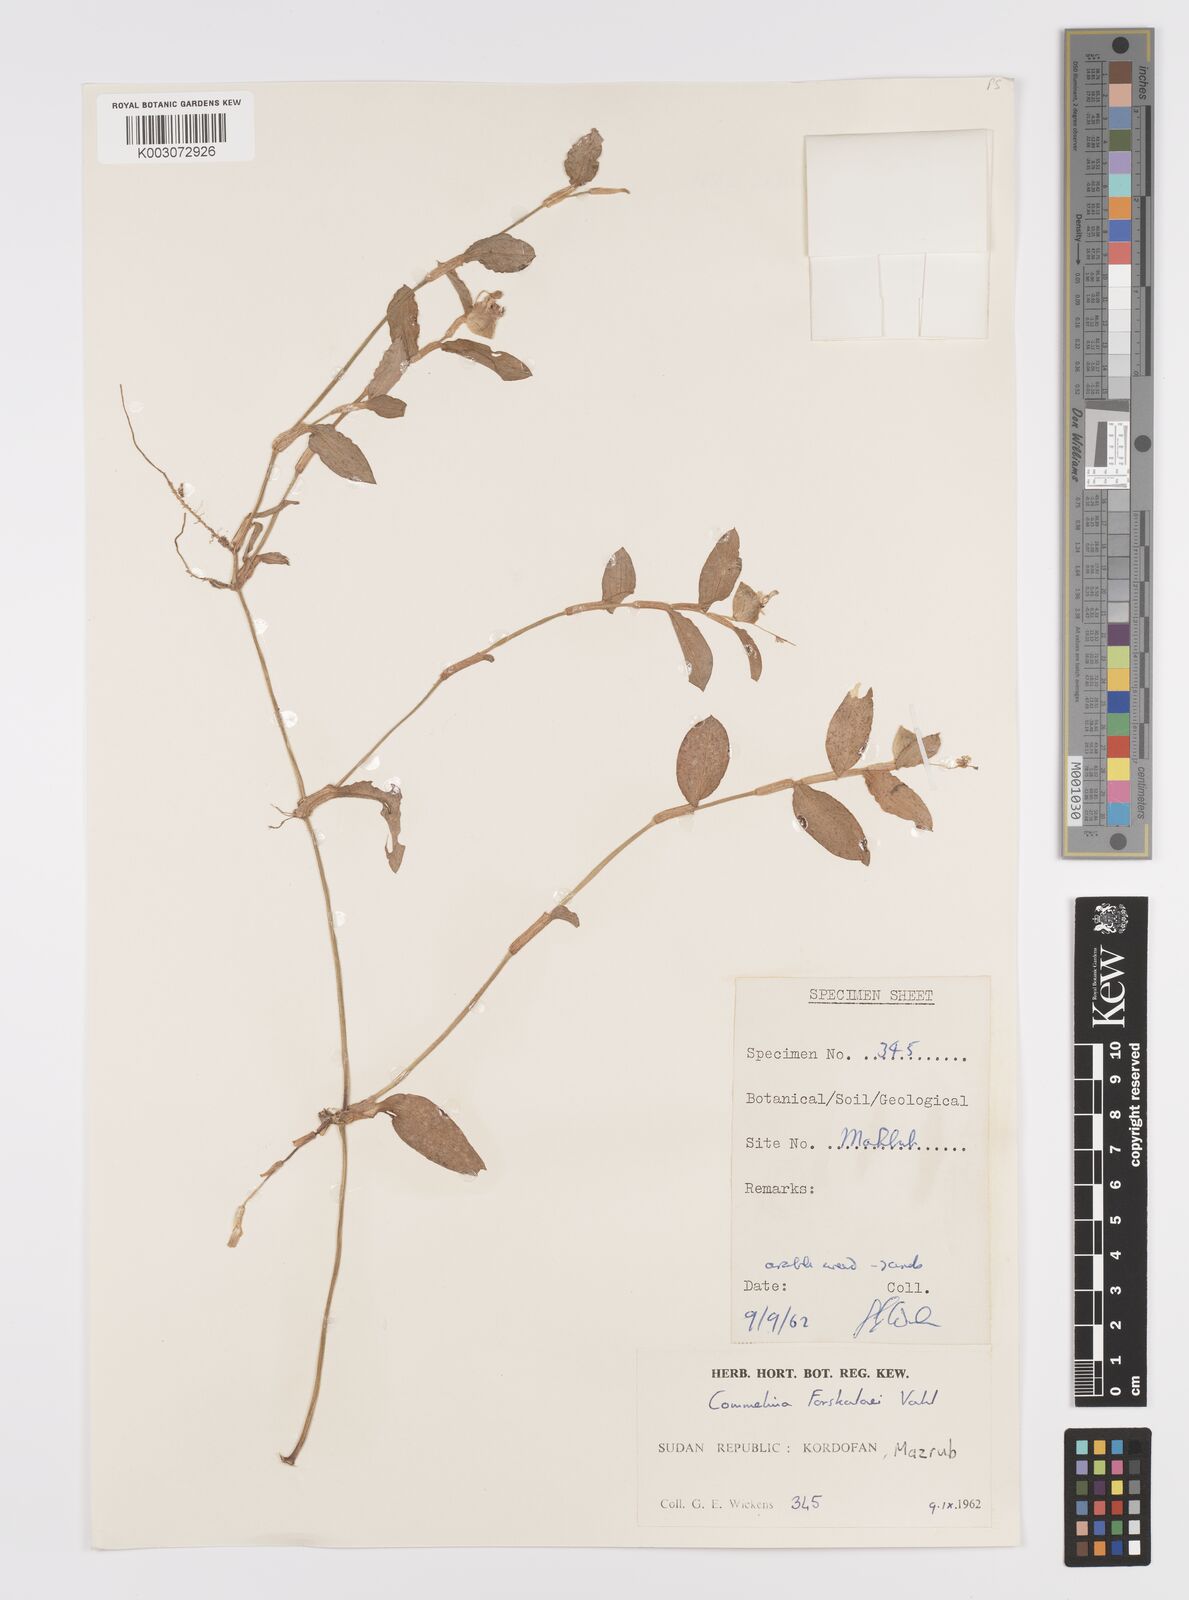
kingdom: Plantae
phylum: Tracheophyta
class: Liliopsida
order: Commelinales
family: Commelinaceae
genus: Commelina
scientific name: Commelina forskaolii
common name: Rat's ear
